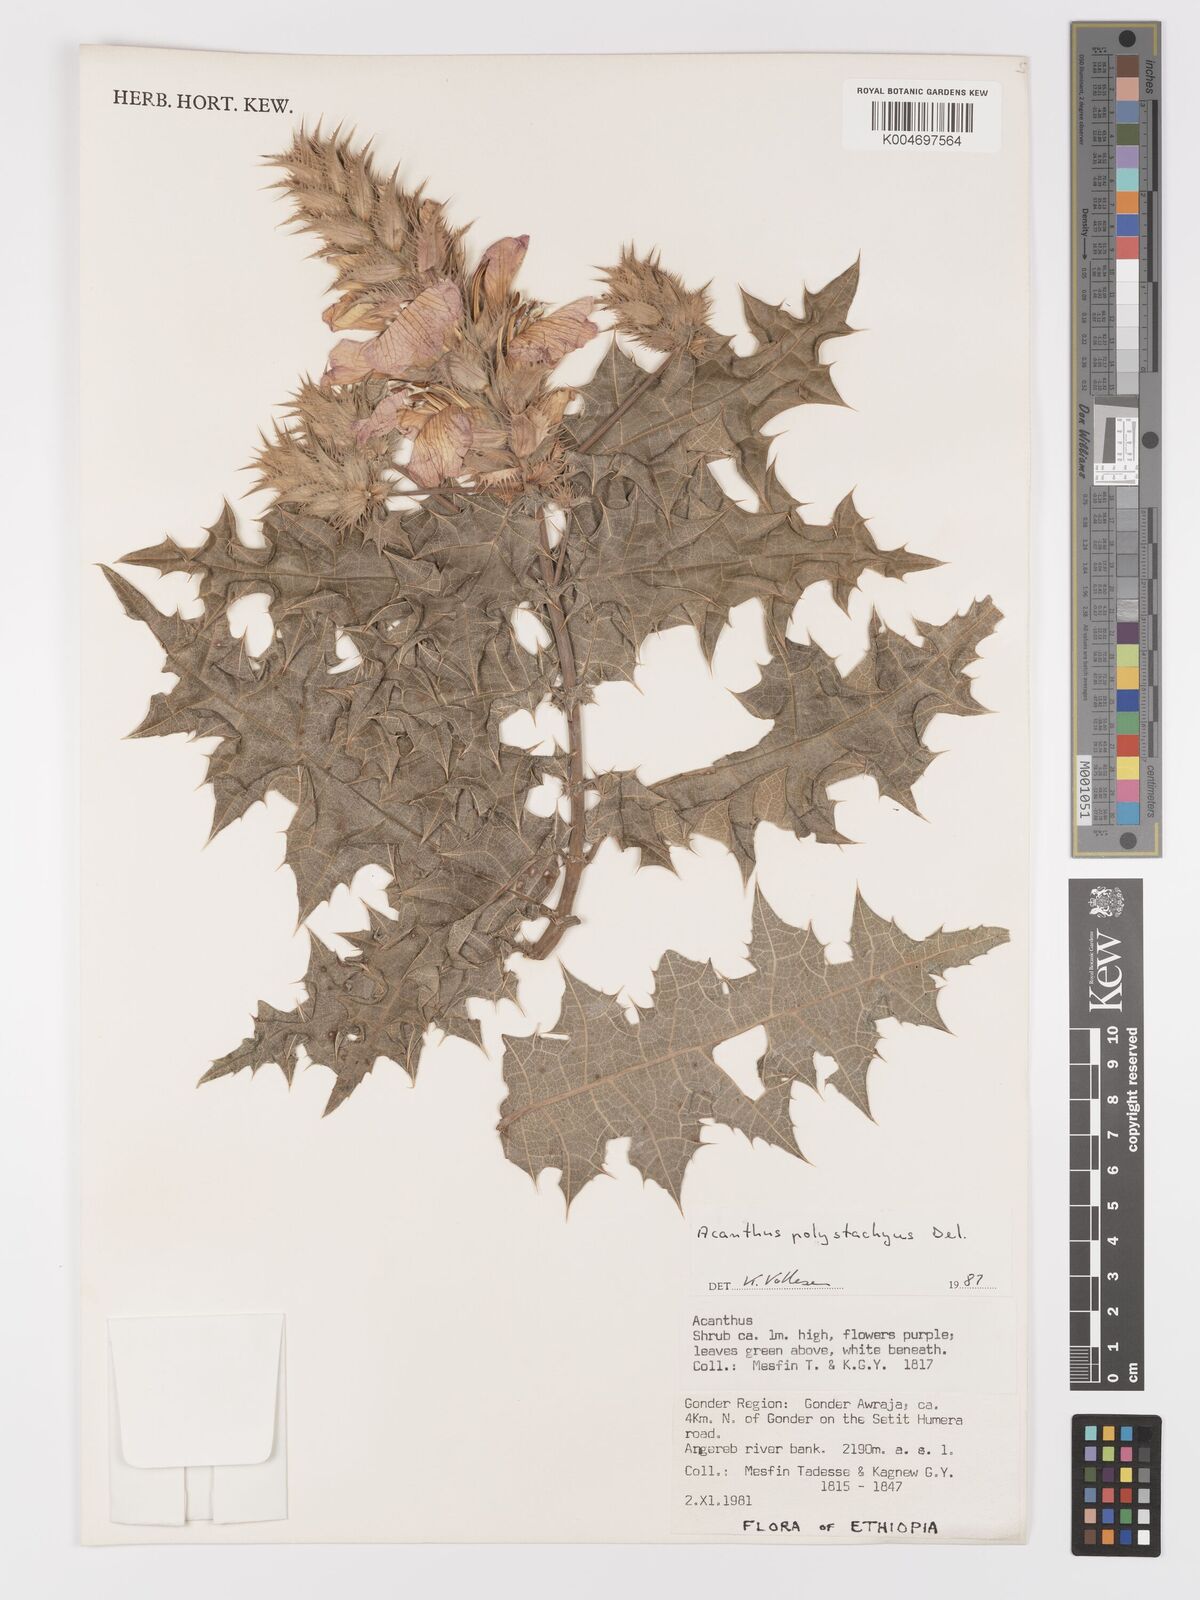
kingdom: Plantae
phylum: Tracheophyta
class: Magnoliopsida
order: Lamiales
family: Acanthaceae
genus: Acanthus
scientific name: Acanthus polystachyus
